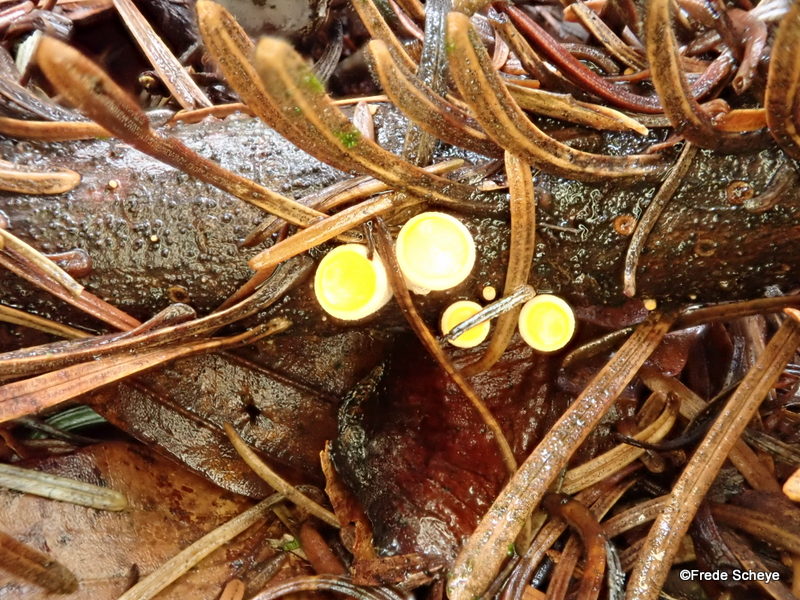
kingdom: Fungi
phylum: Ascomycota
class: Pezizomycetes
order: Pezizales
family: Sarcoscyphaceae
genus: Pithya
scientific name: Pithya vulgaris
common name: stor dukatbæger
